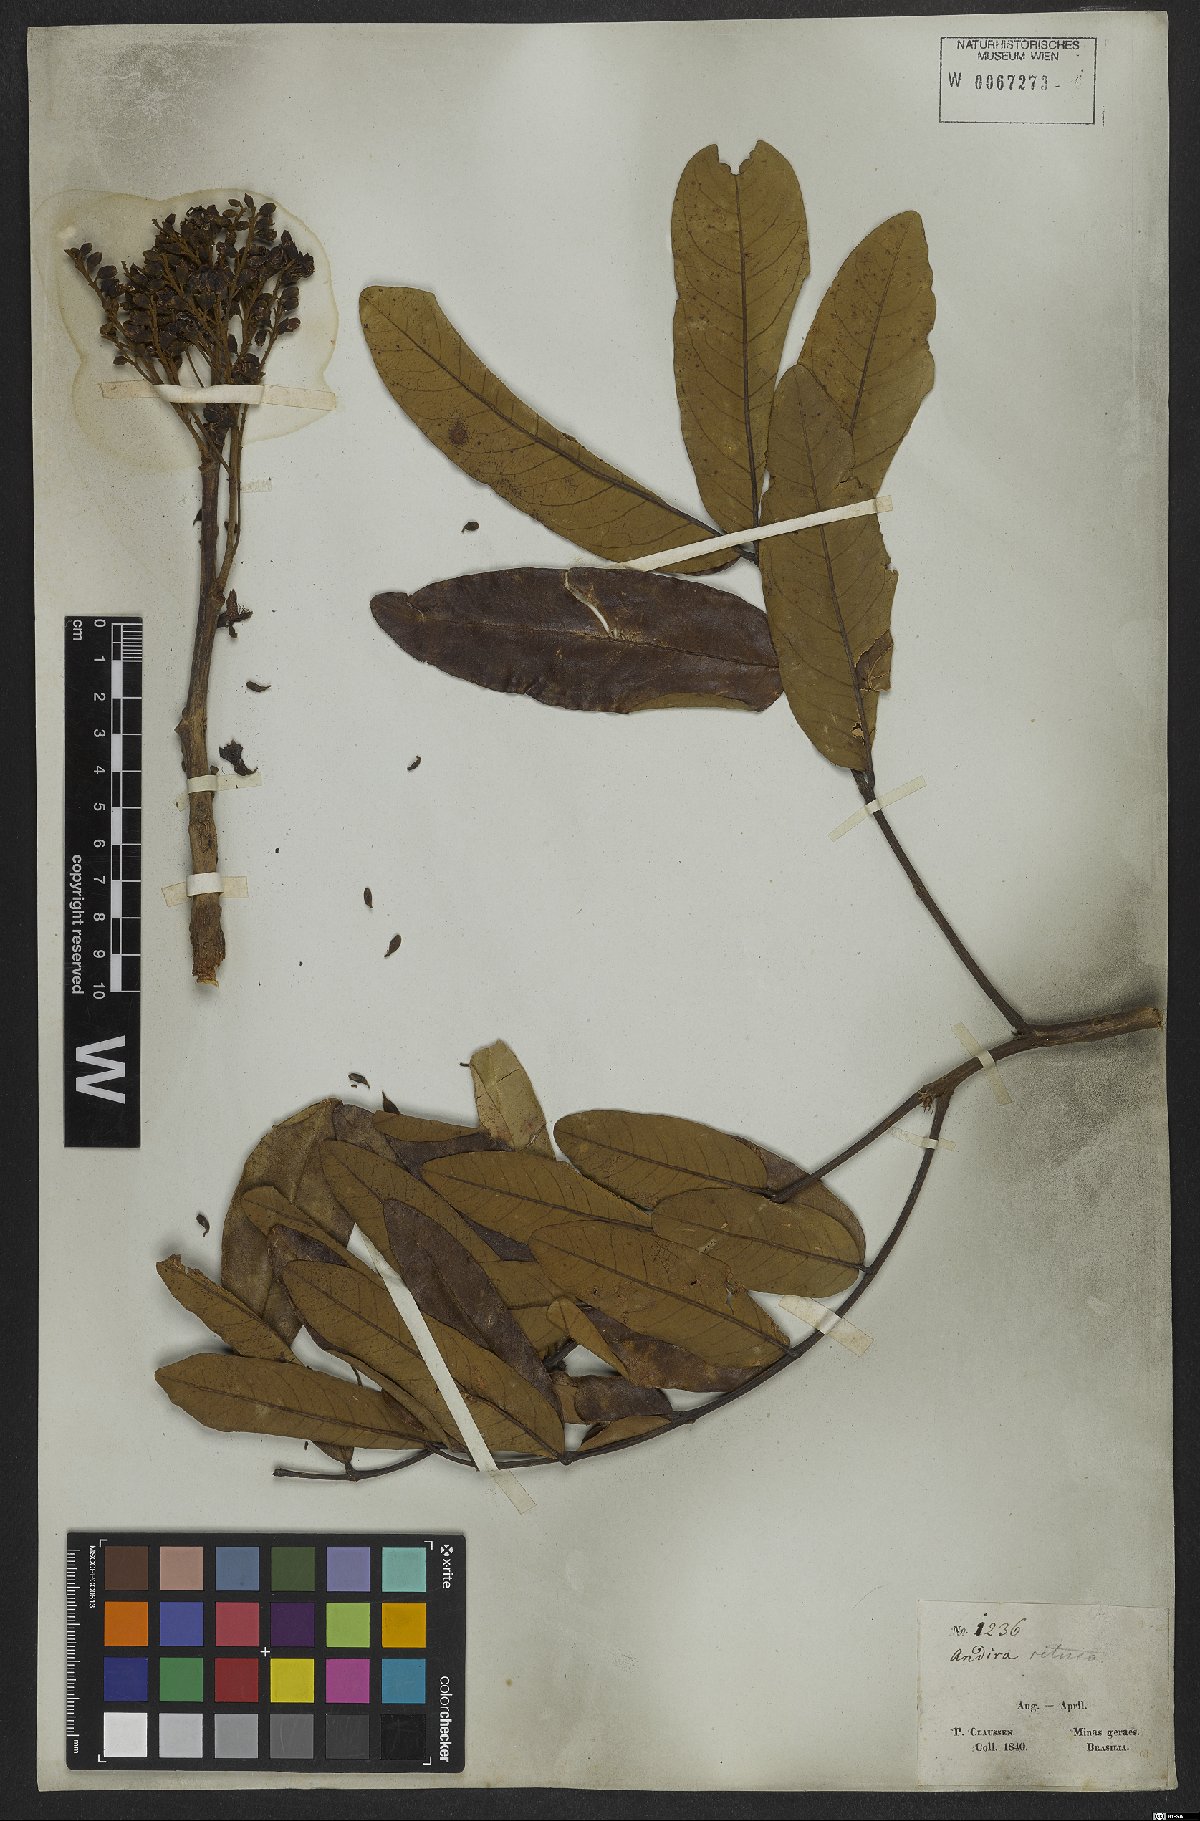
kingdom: Plantae
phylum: Tracheophyta
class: Magnoliopsida
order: Fabales
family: Fabaceae
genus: Andira
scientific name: Andira surinamensis
